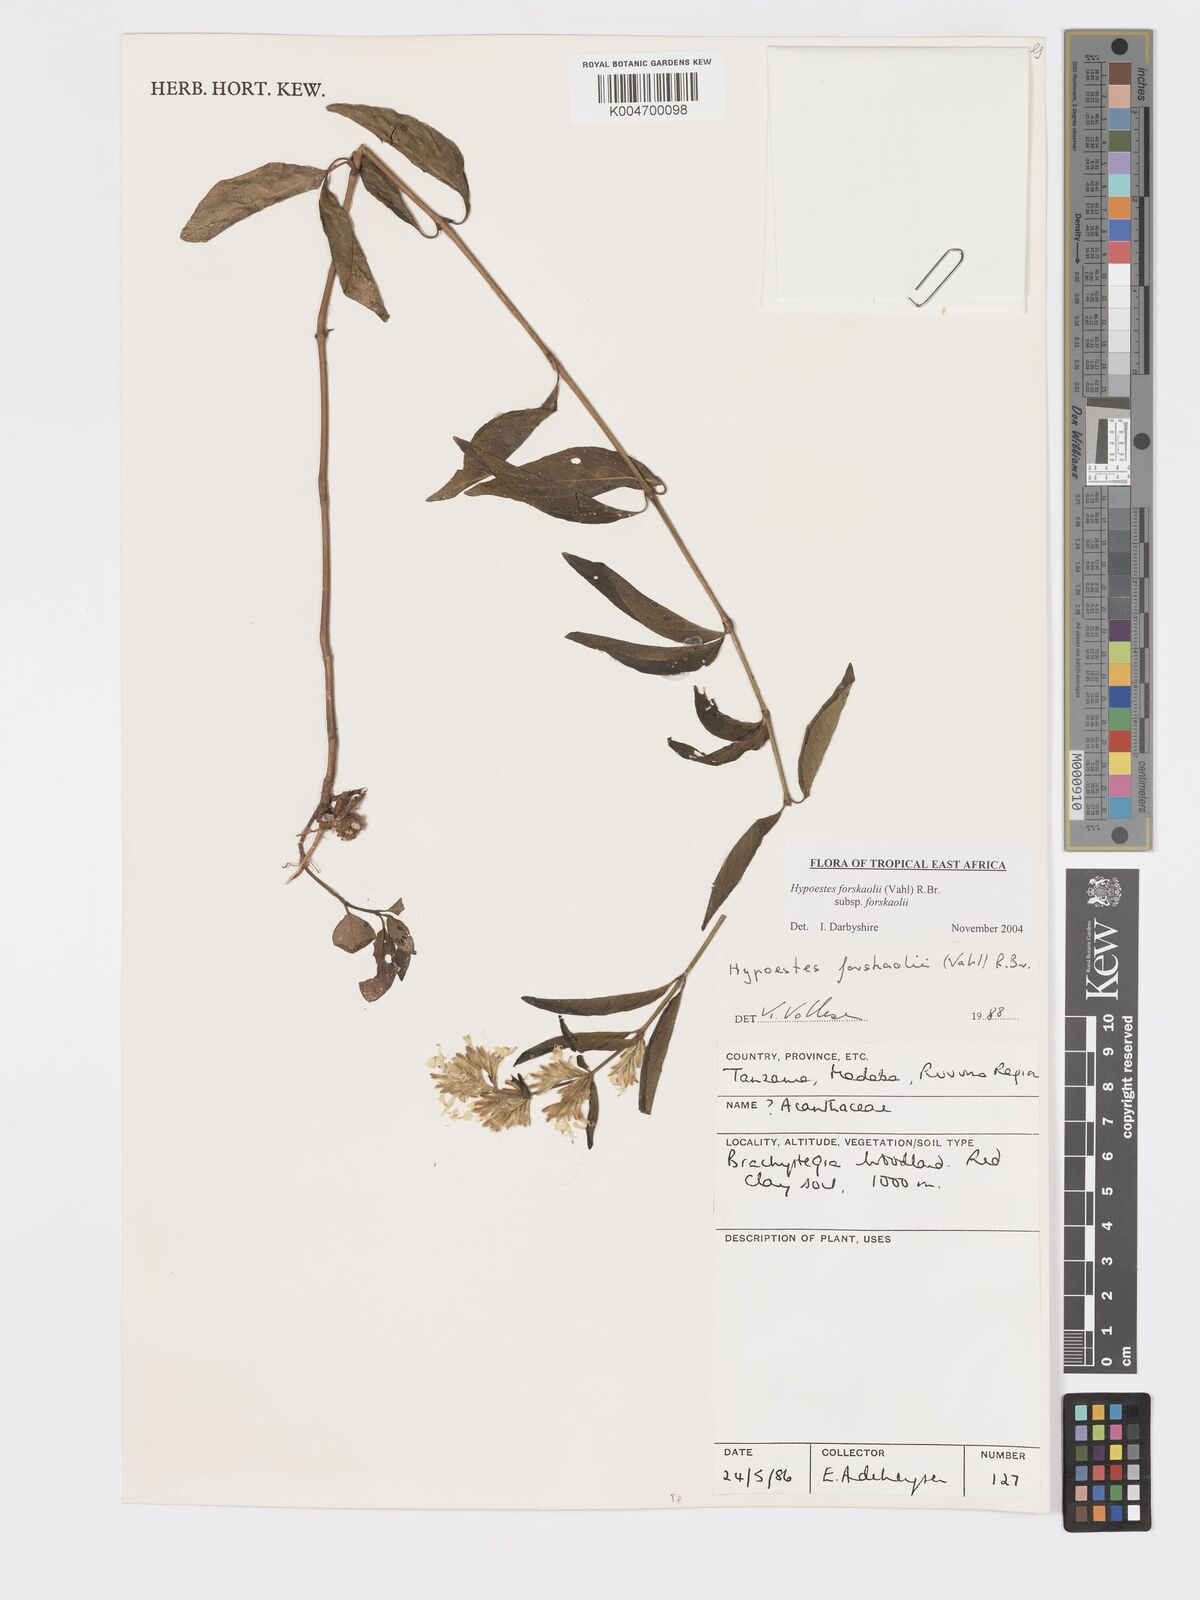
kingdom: Plantae
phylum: Tracheophyta
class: Magnoliopsida
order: Lamiales
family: Acanthaceae
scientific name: Acanthaceae
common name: Acanthaceae
